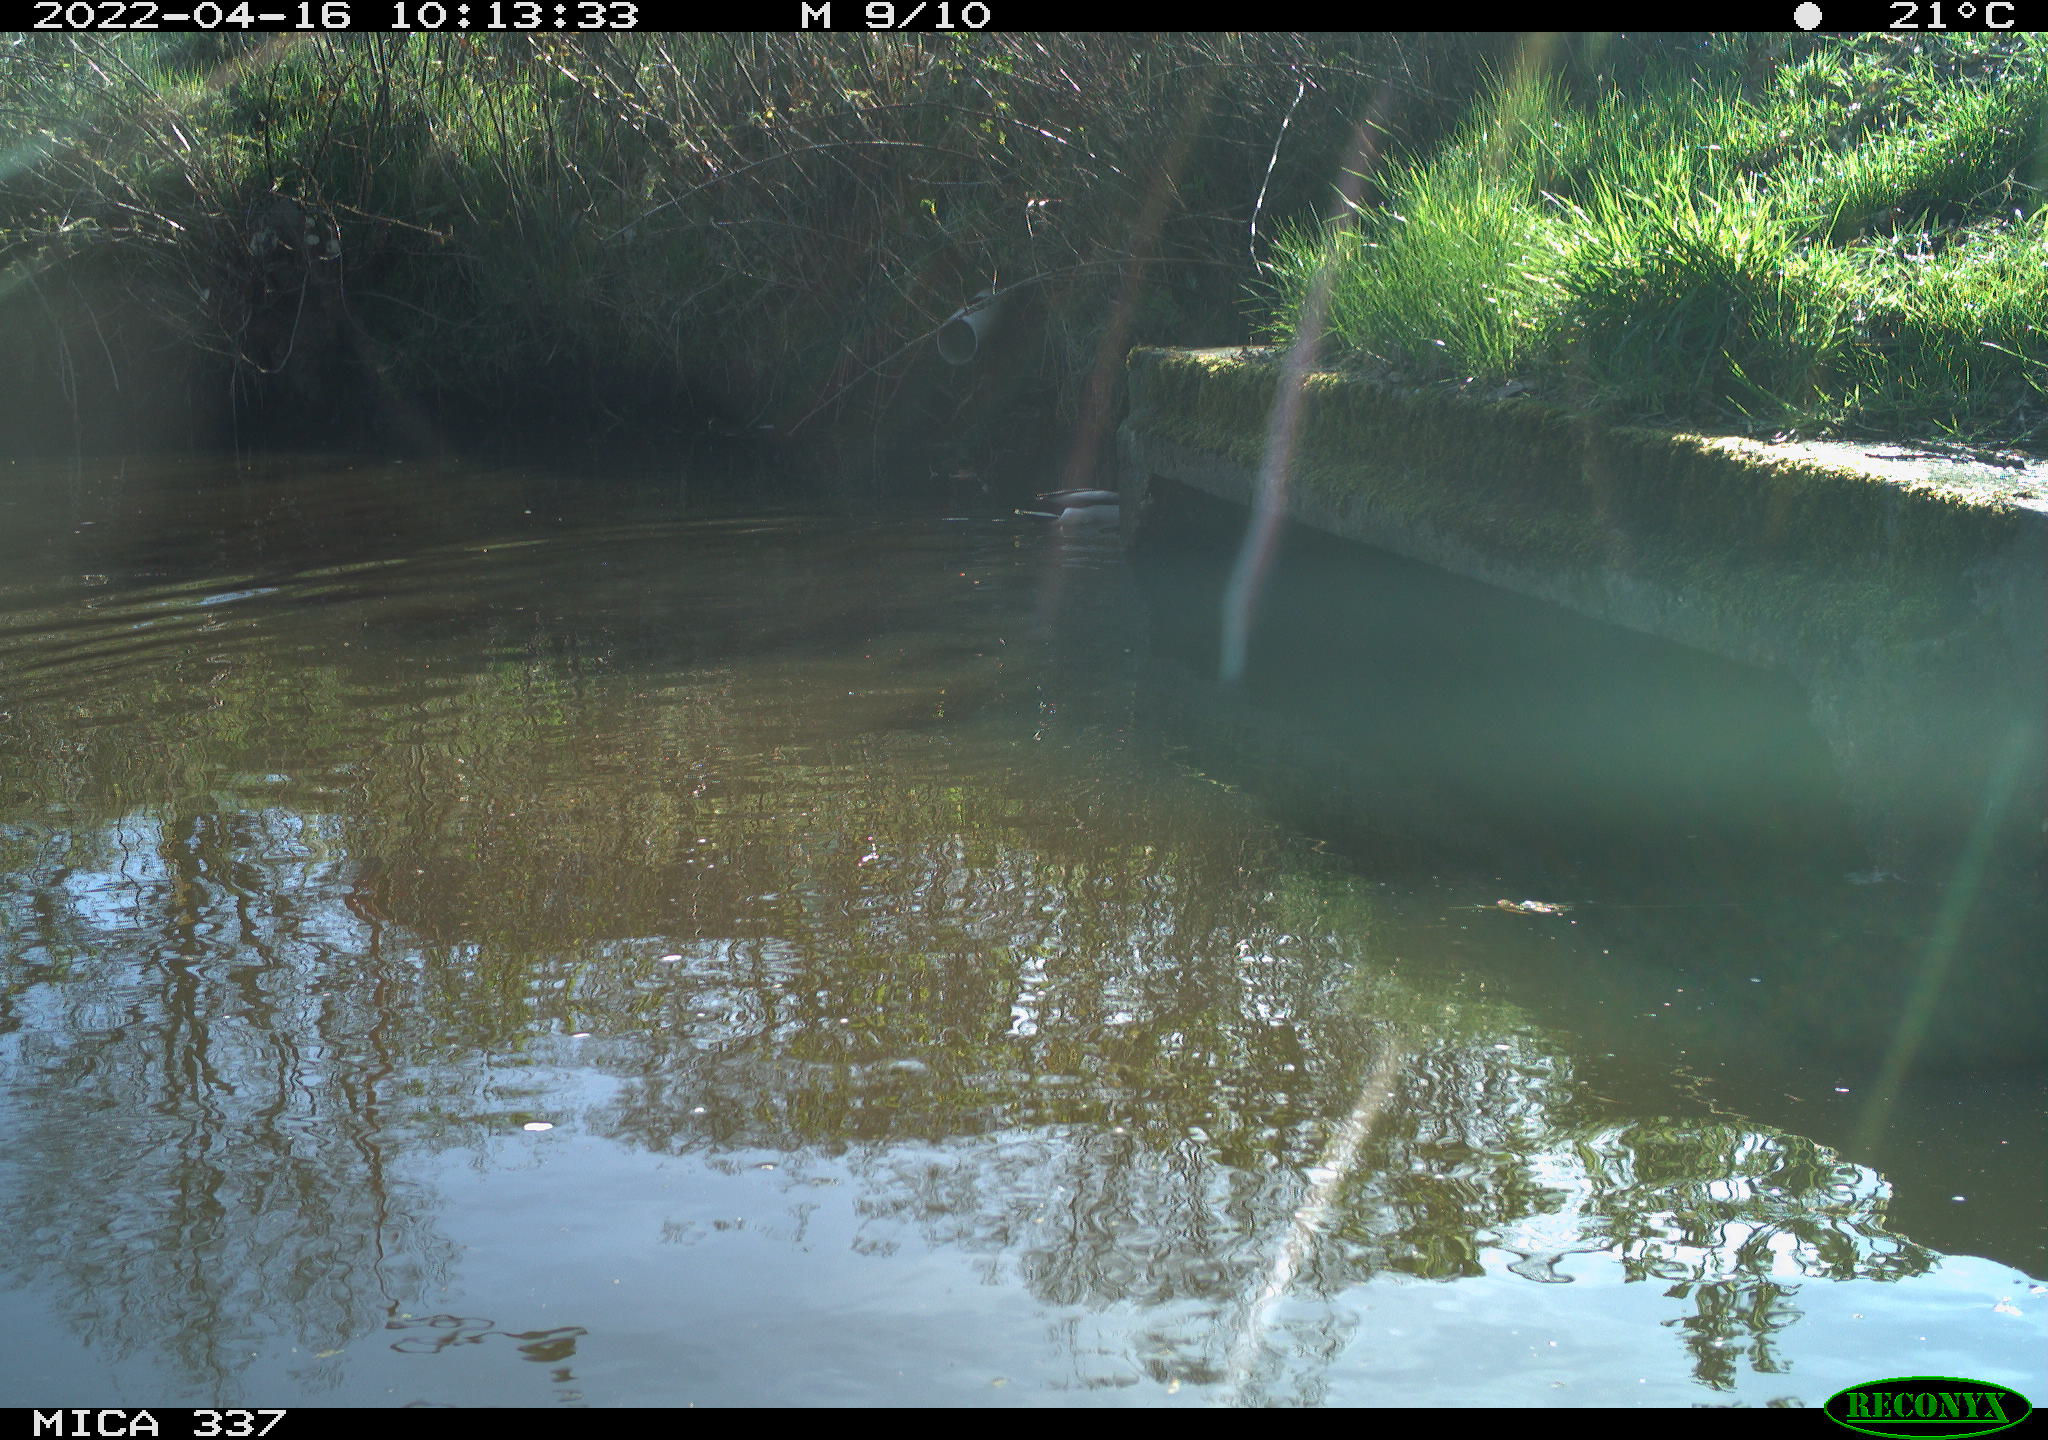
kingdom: Animalia
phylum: Chordata
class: Aves
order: Anseriformes
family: Anatidae
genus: Anas
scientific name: Anas platyrhynchos
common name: Mallard
